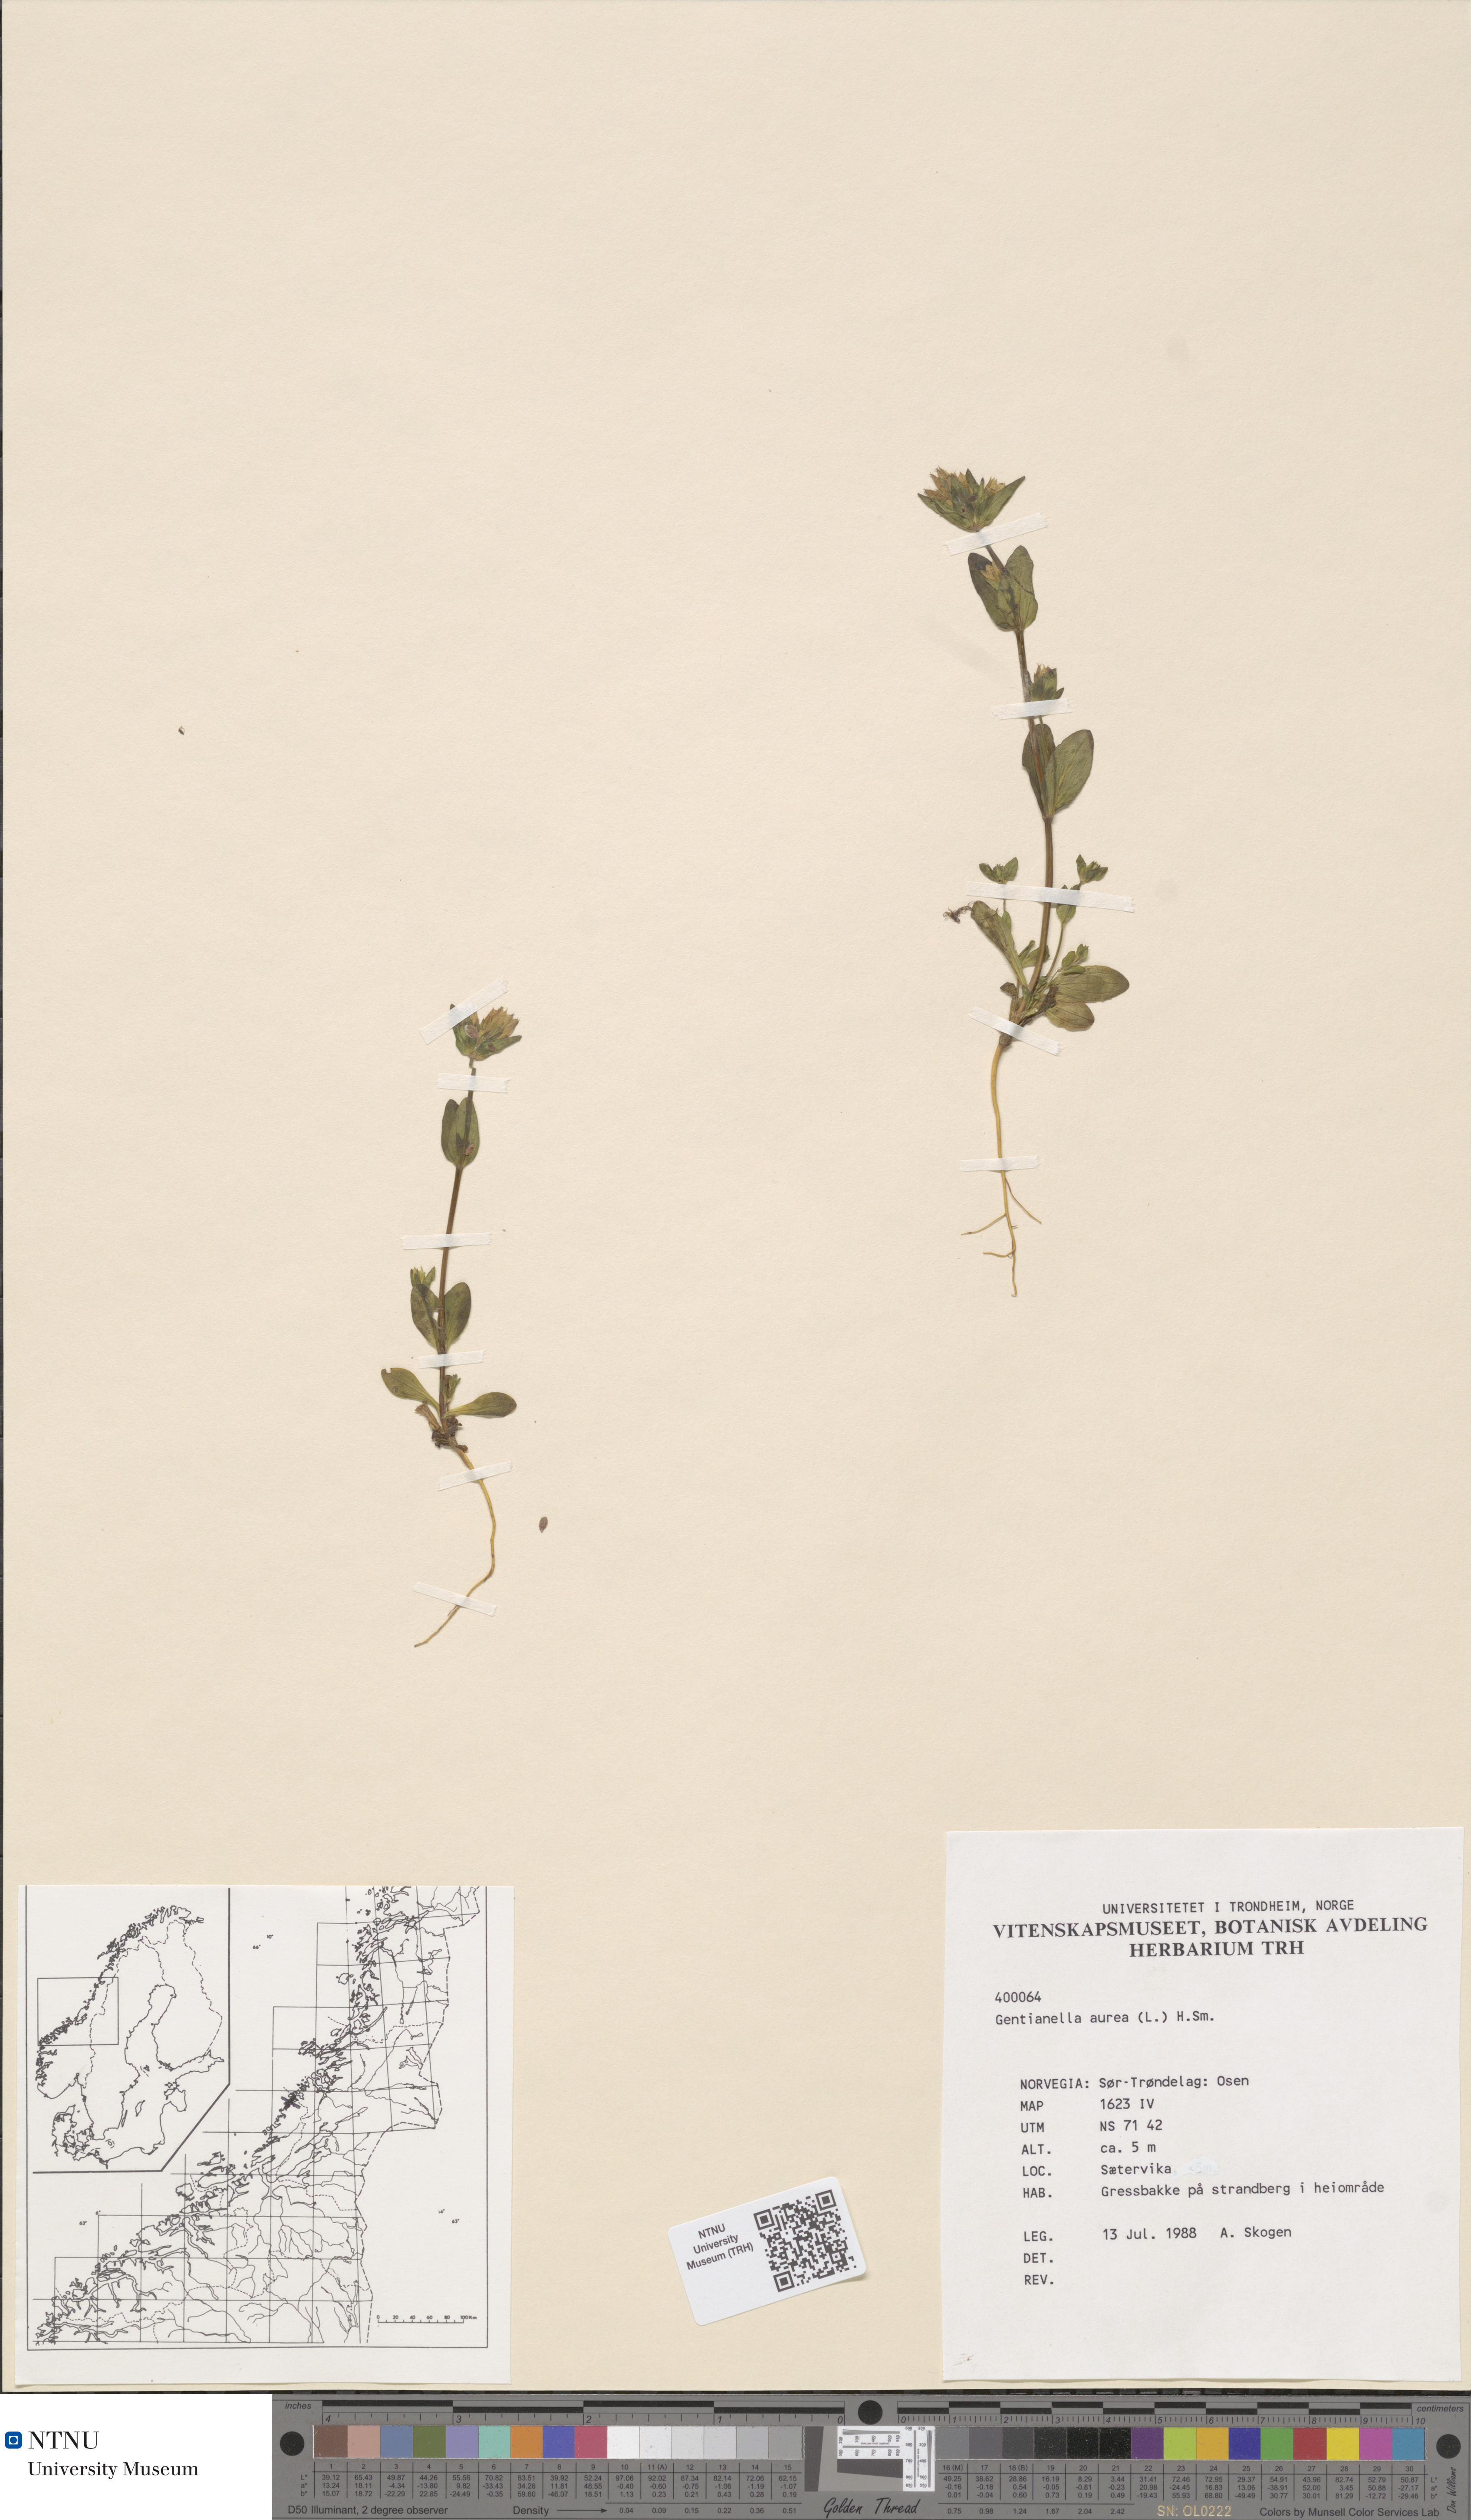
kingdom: Plantae
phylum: Tracheophyta
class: Magnoliopsida
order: Gentianales
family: Gentianaceae
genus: Gentianella
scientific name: Gentianella aurea
